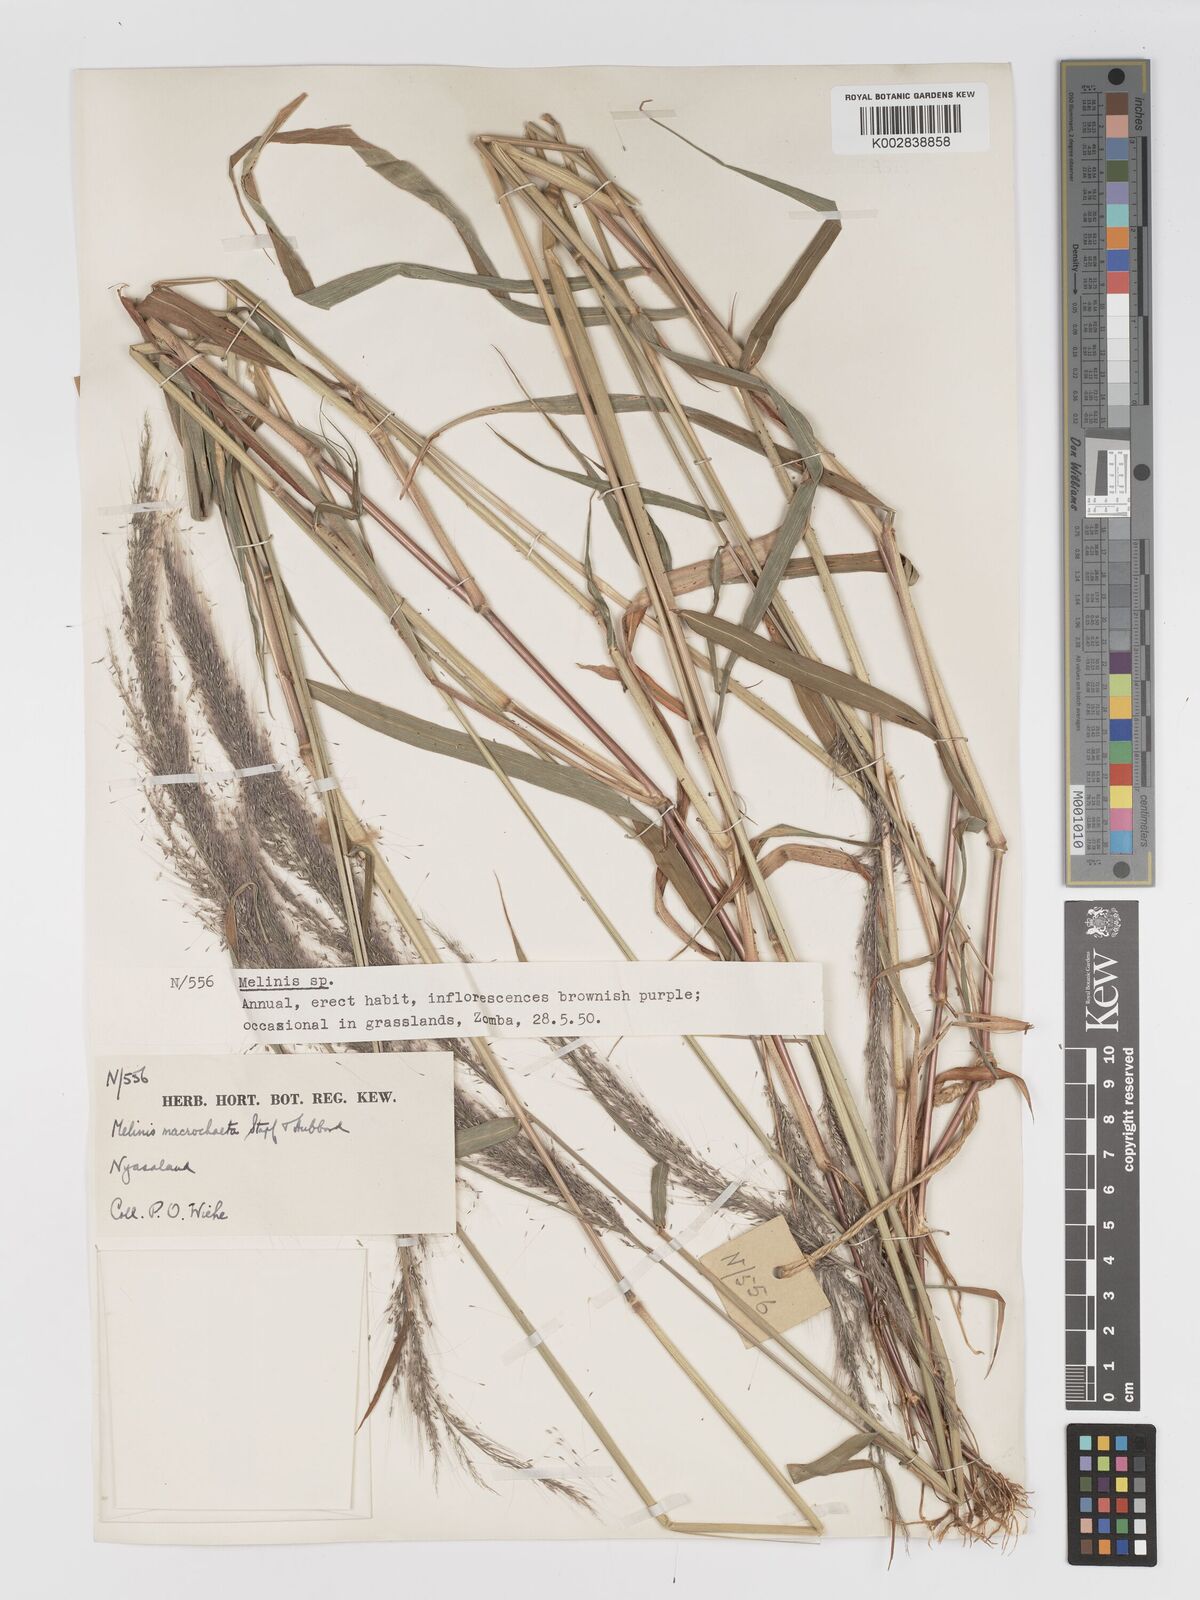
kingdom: Plantae
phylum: Tracheophyta
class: Liliopsida
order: Poales
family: Poaceae
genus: Melinis
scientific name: Melinis macrochaeta
